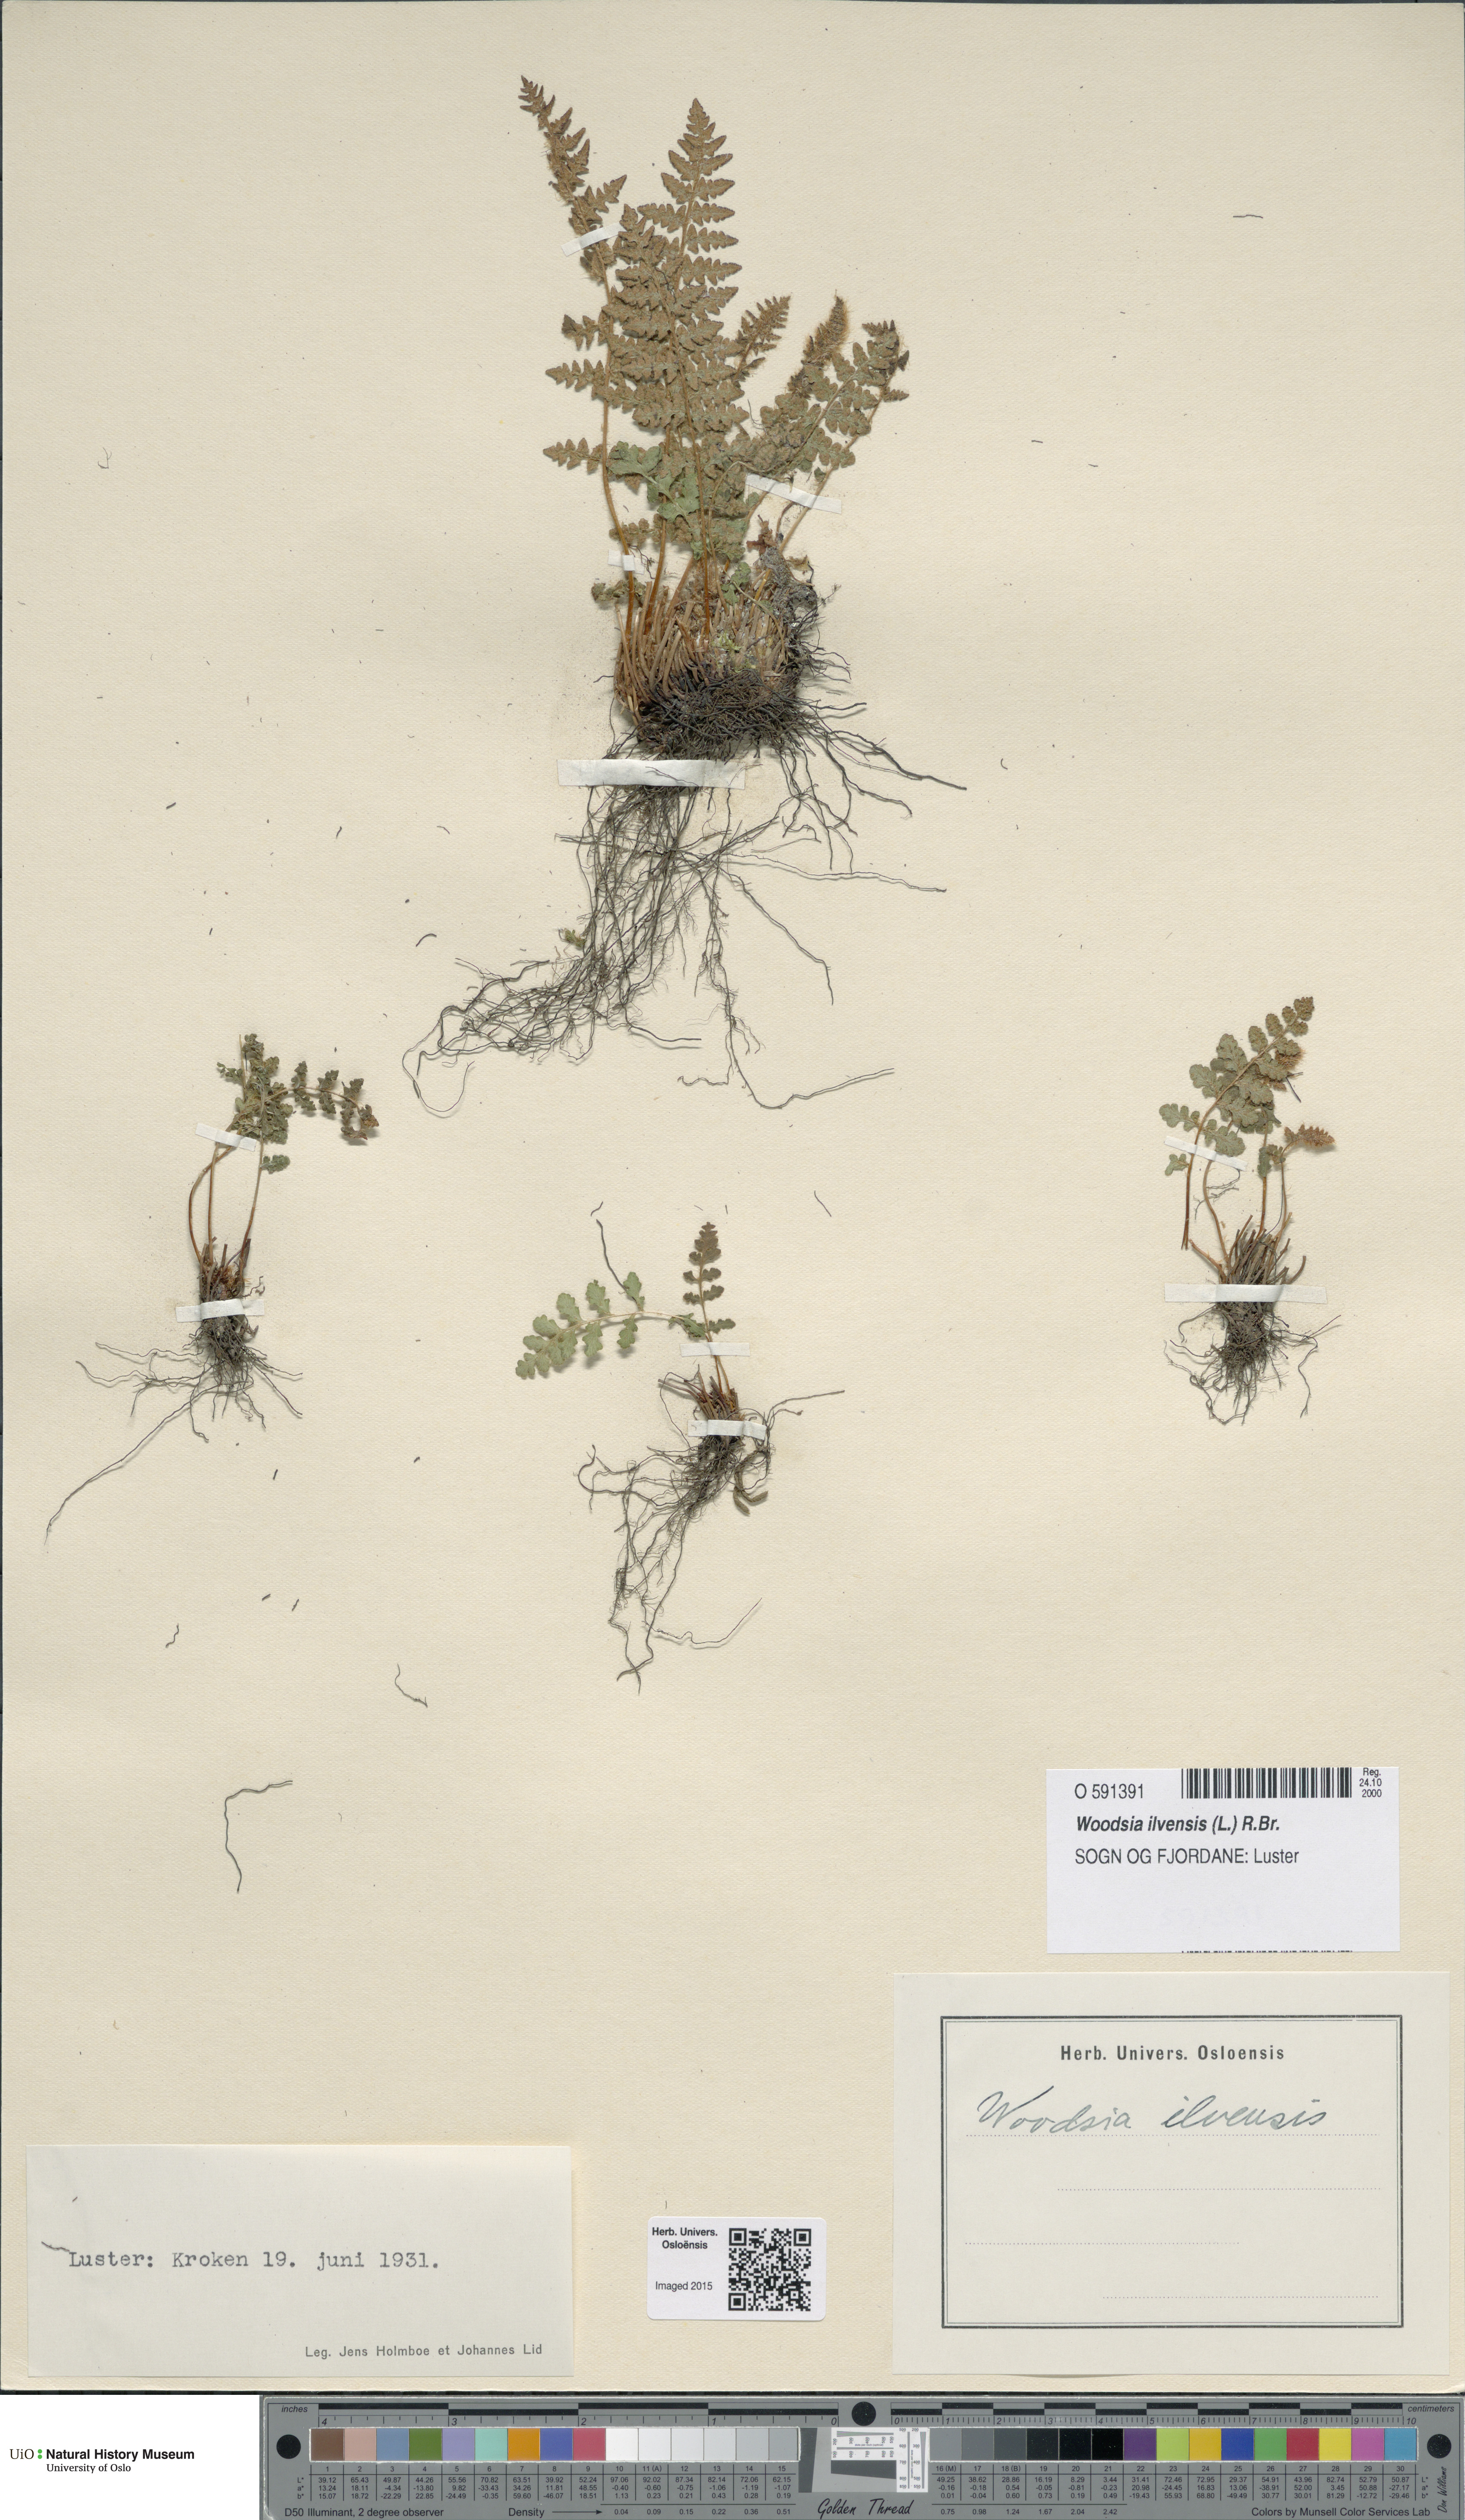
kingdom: Plantae
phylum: Tracheophyta
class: Polypodiopsida
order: Polypodiales
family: Woodsiaceae
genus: Woodsia
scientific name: Woodsia ilvensis
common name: Fragrant woodsia
